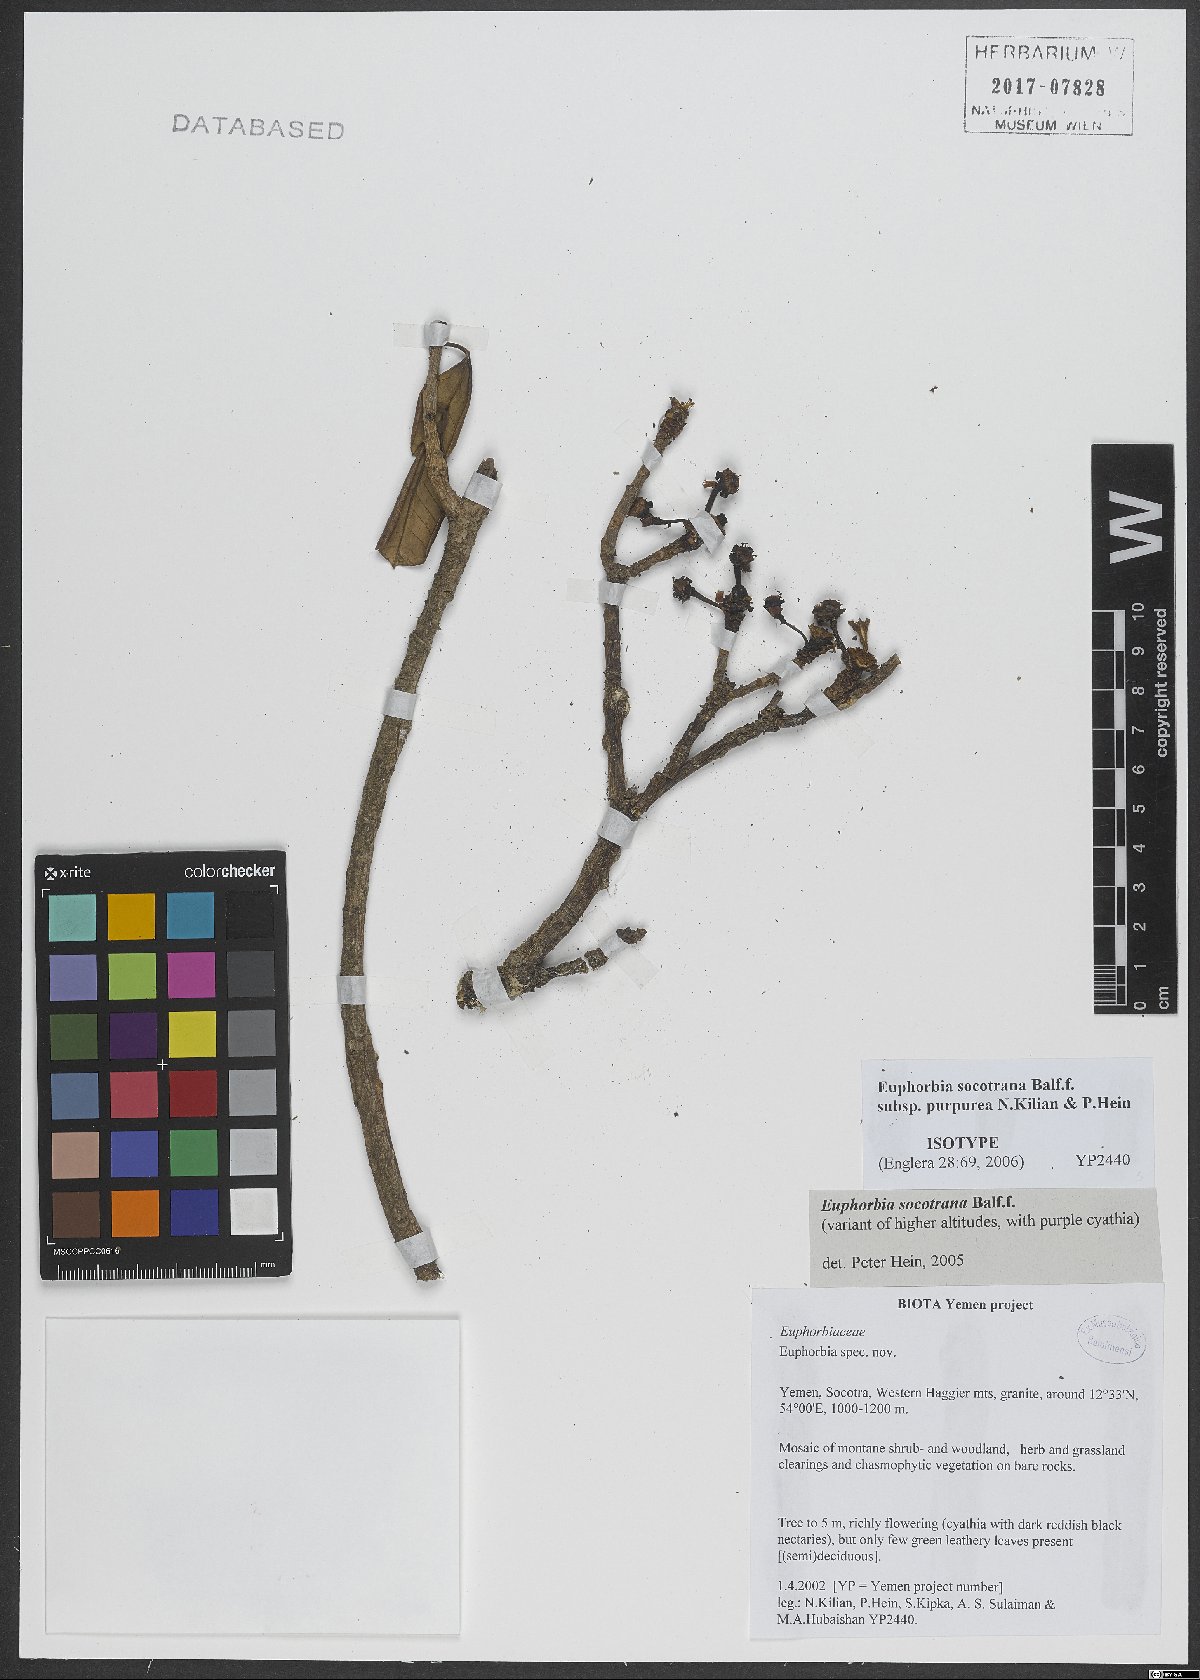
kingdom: Plantae
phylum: Tracheophyta
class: Magnoliopsida
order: Malpighiales
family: Euphorbiaceae
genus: Euphorbia
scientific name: Euphorbia socotrana
